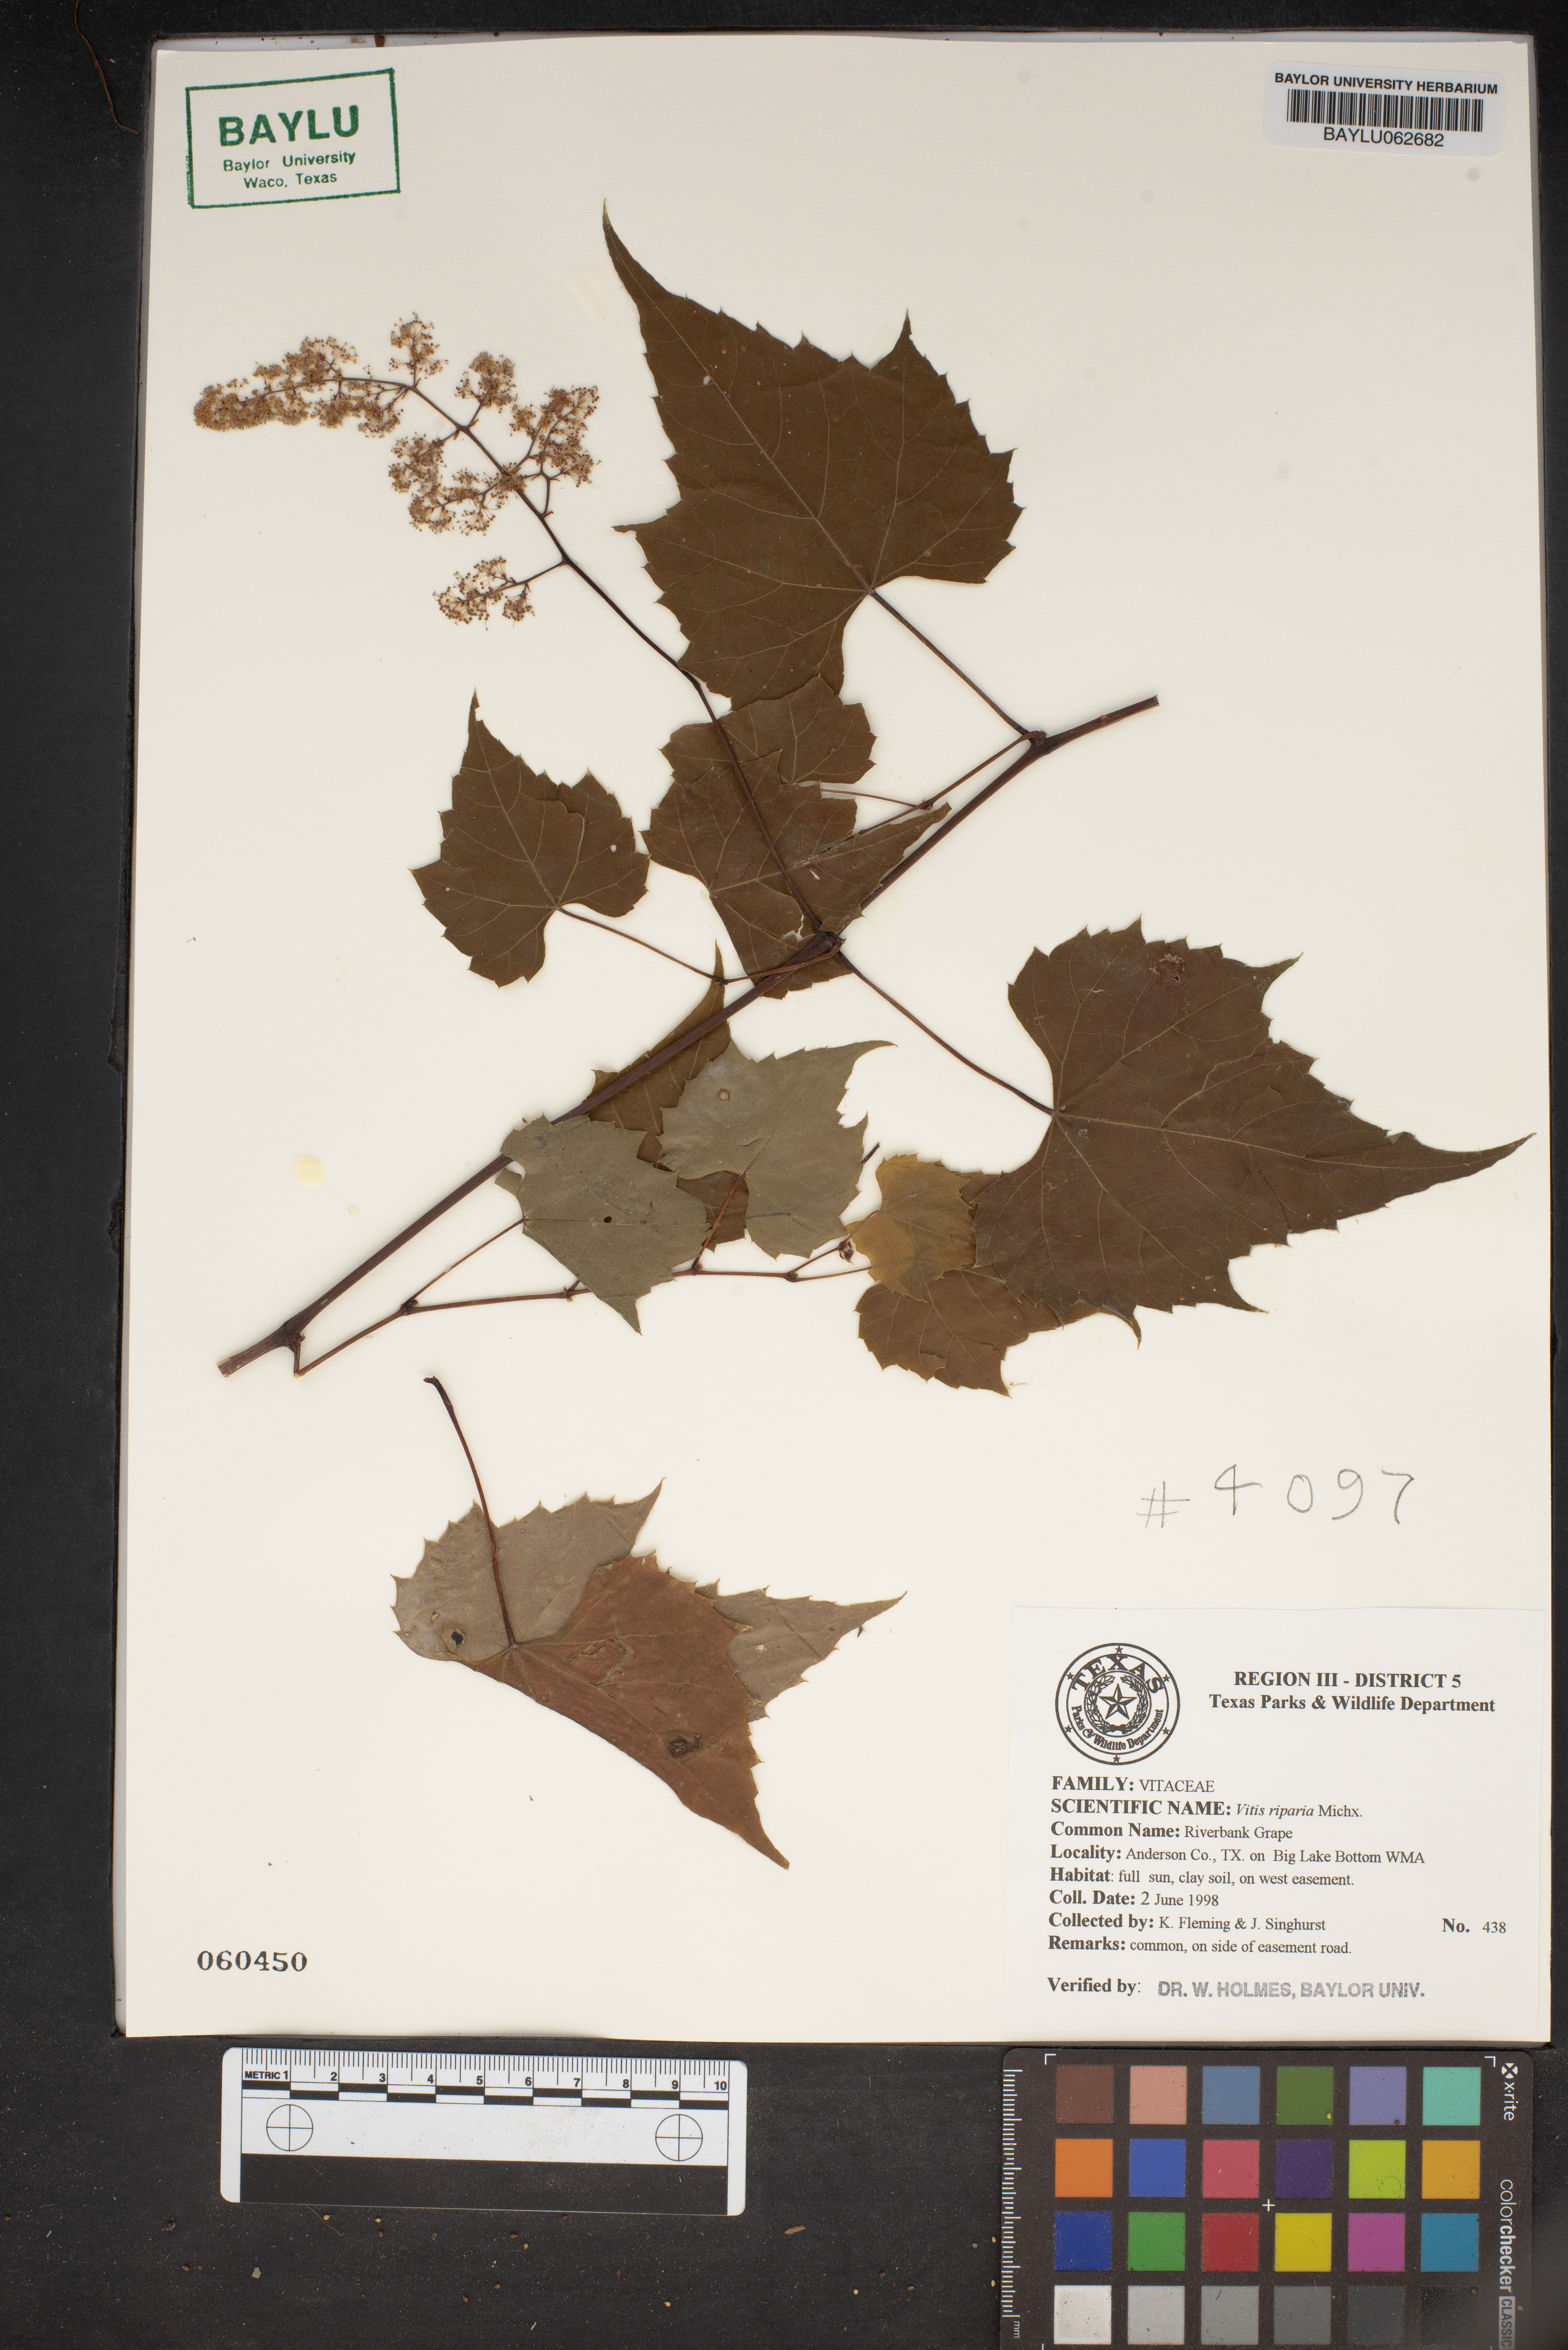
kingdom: Plantae
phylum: Tracheophyta
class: Magnoliopsida
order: Vitales
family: Vitaceae
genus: Vitis
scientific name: Vitis riparia
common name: Frost grape
